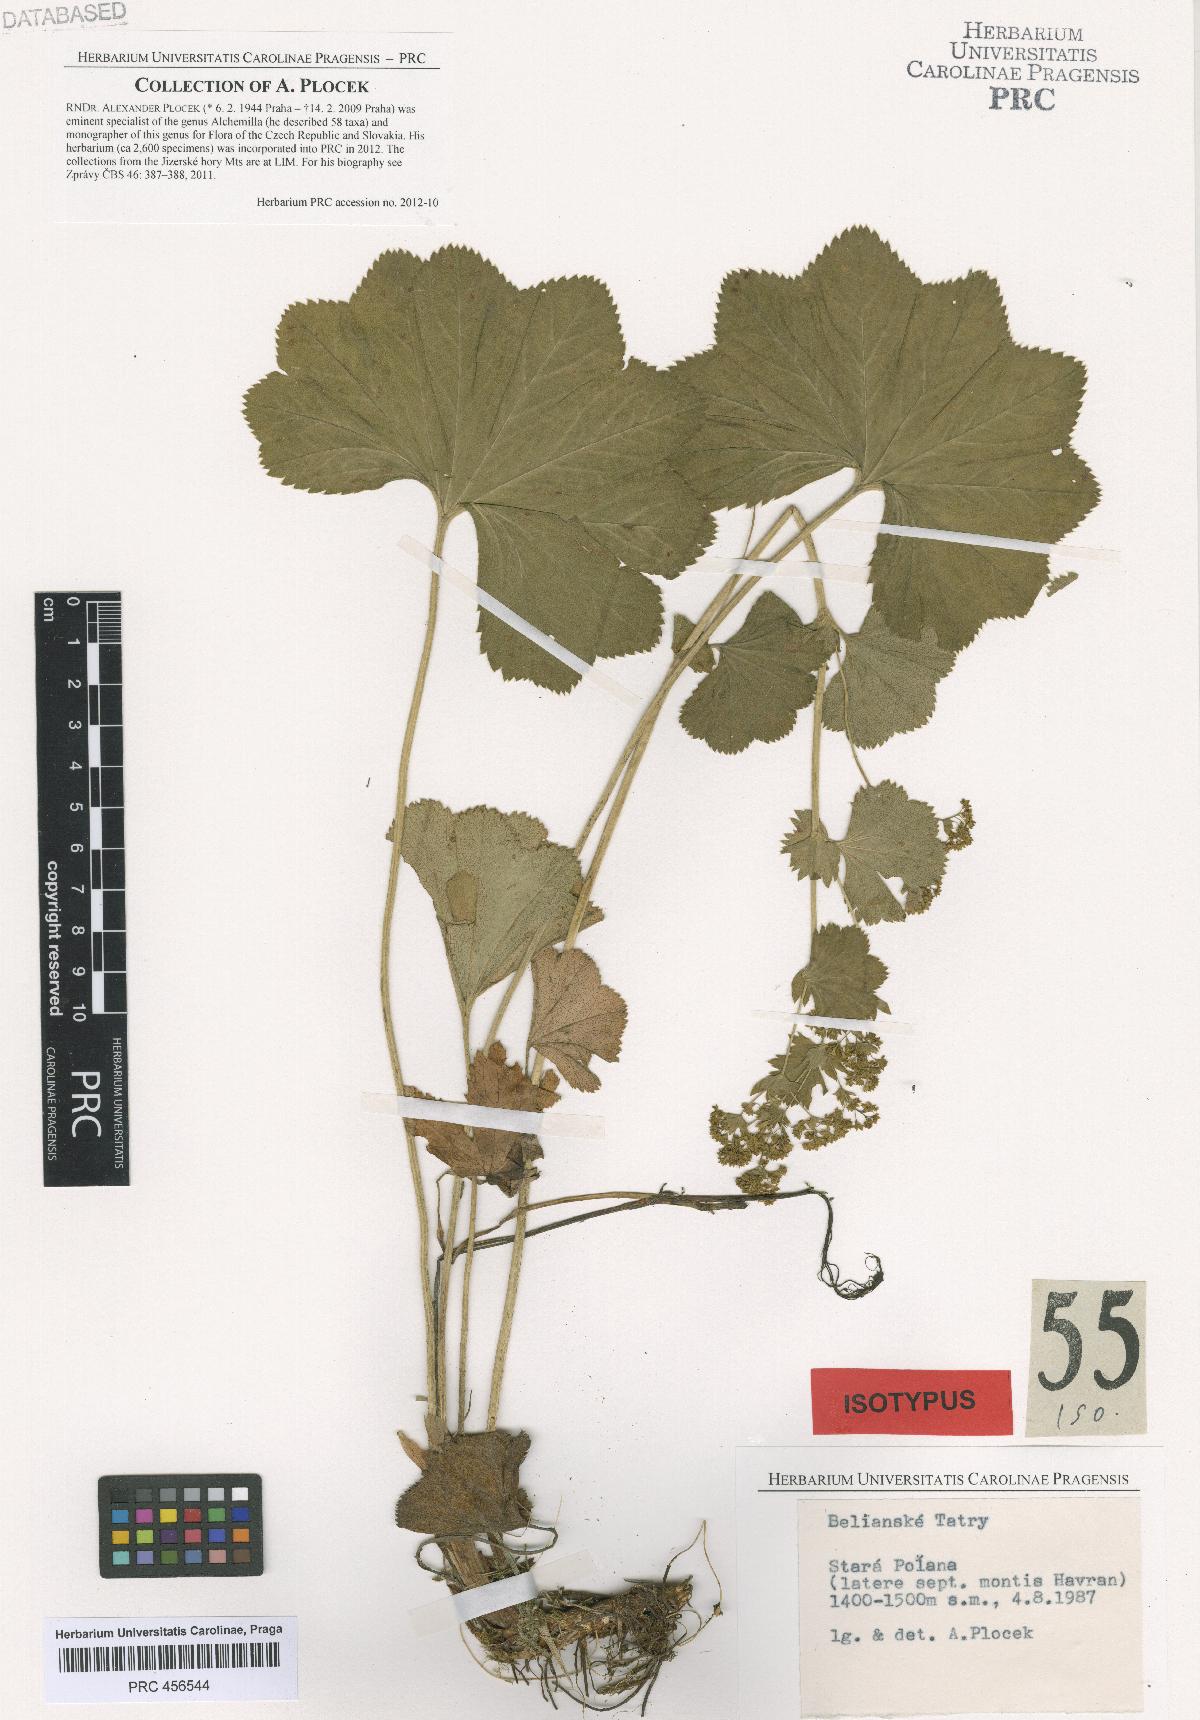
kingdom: Plantae
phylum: Tracheophyta
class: Magnoliopsida
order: Rosales
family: Rosaceae
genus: Alchemilla
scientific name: Alchemilla amauroptera
